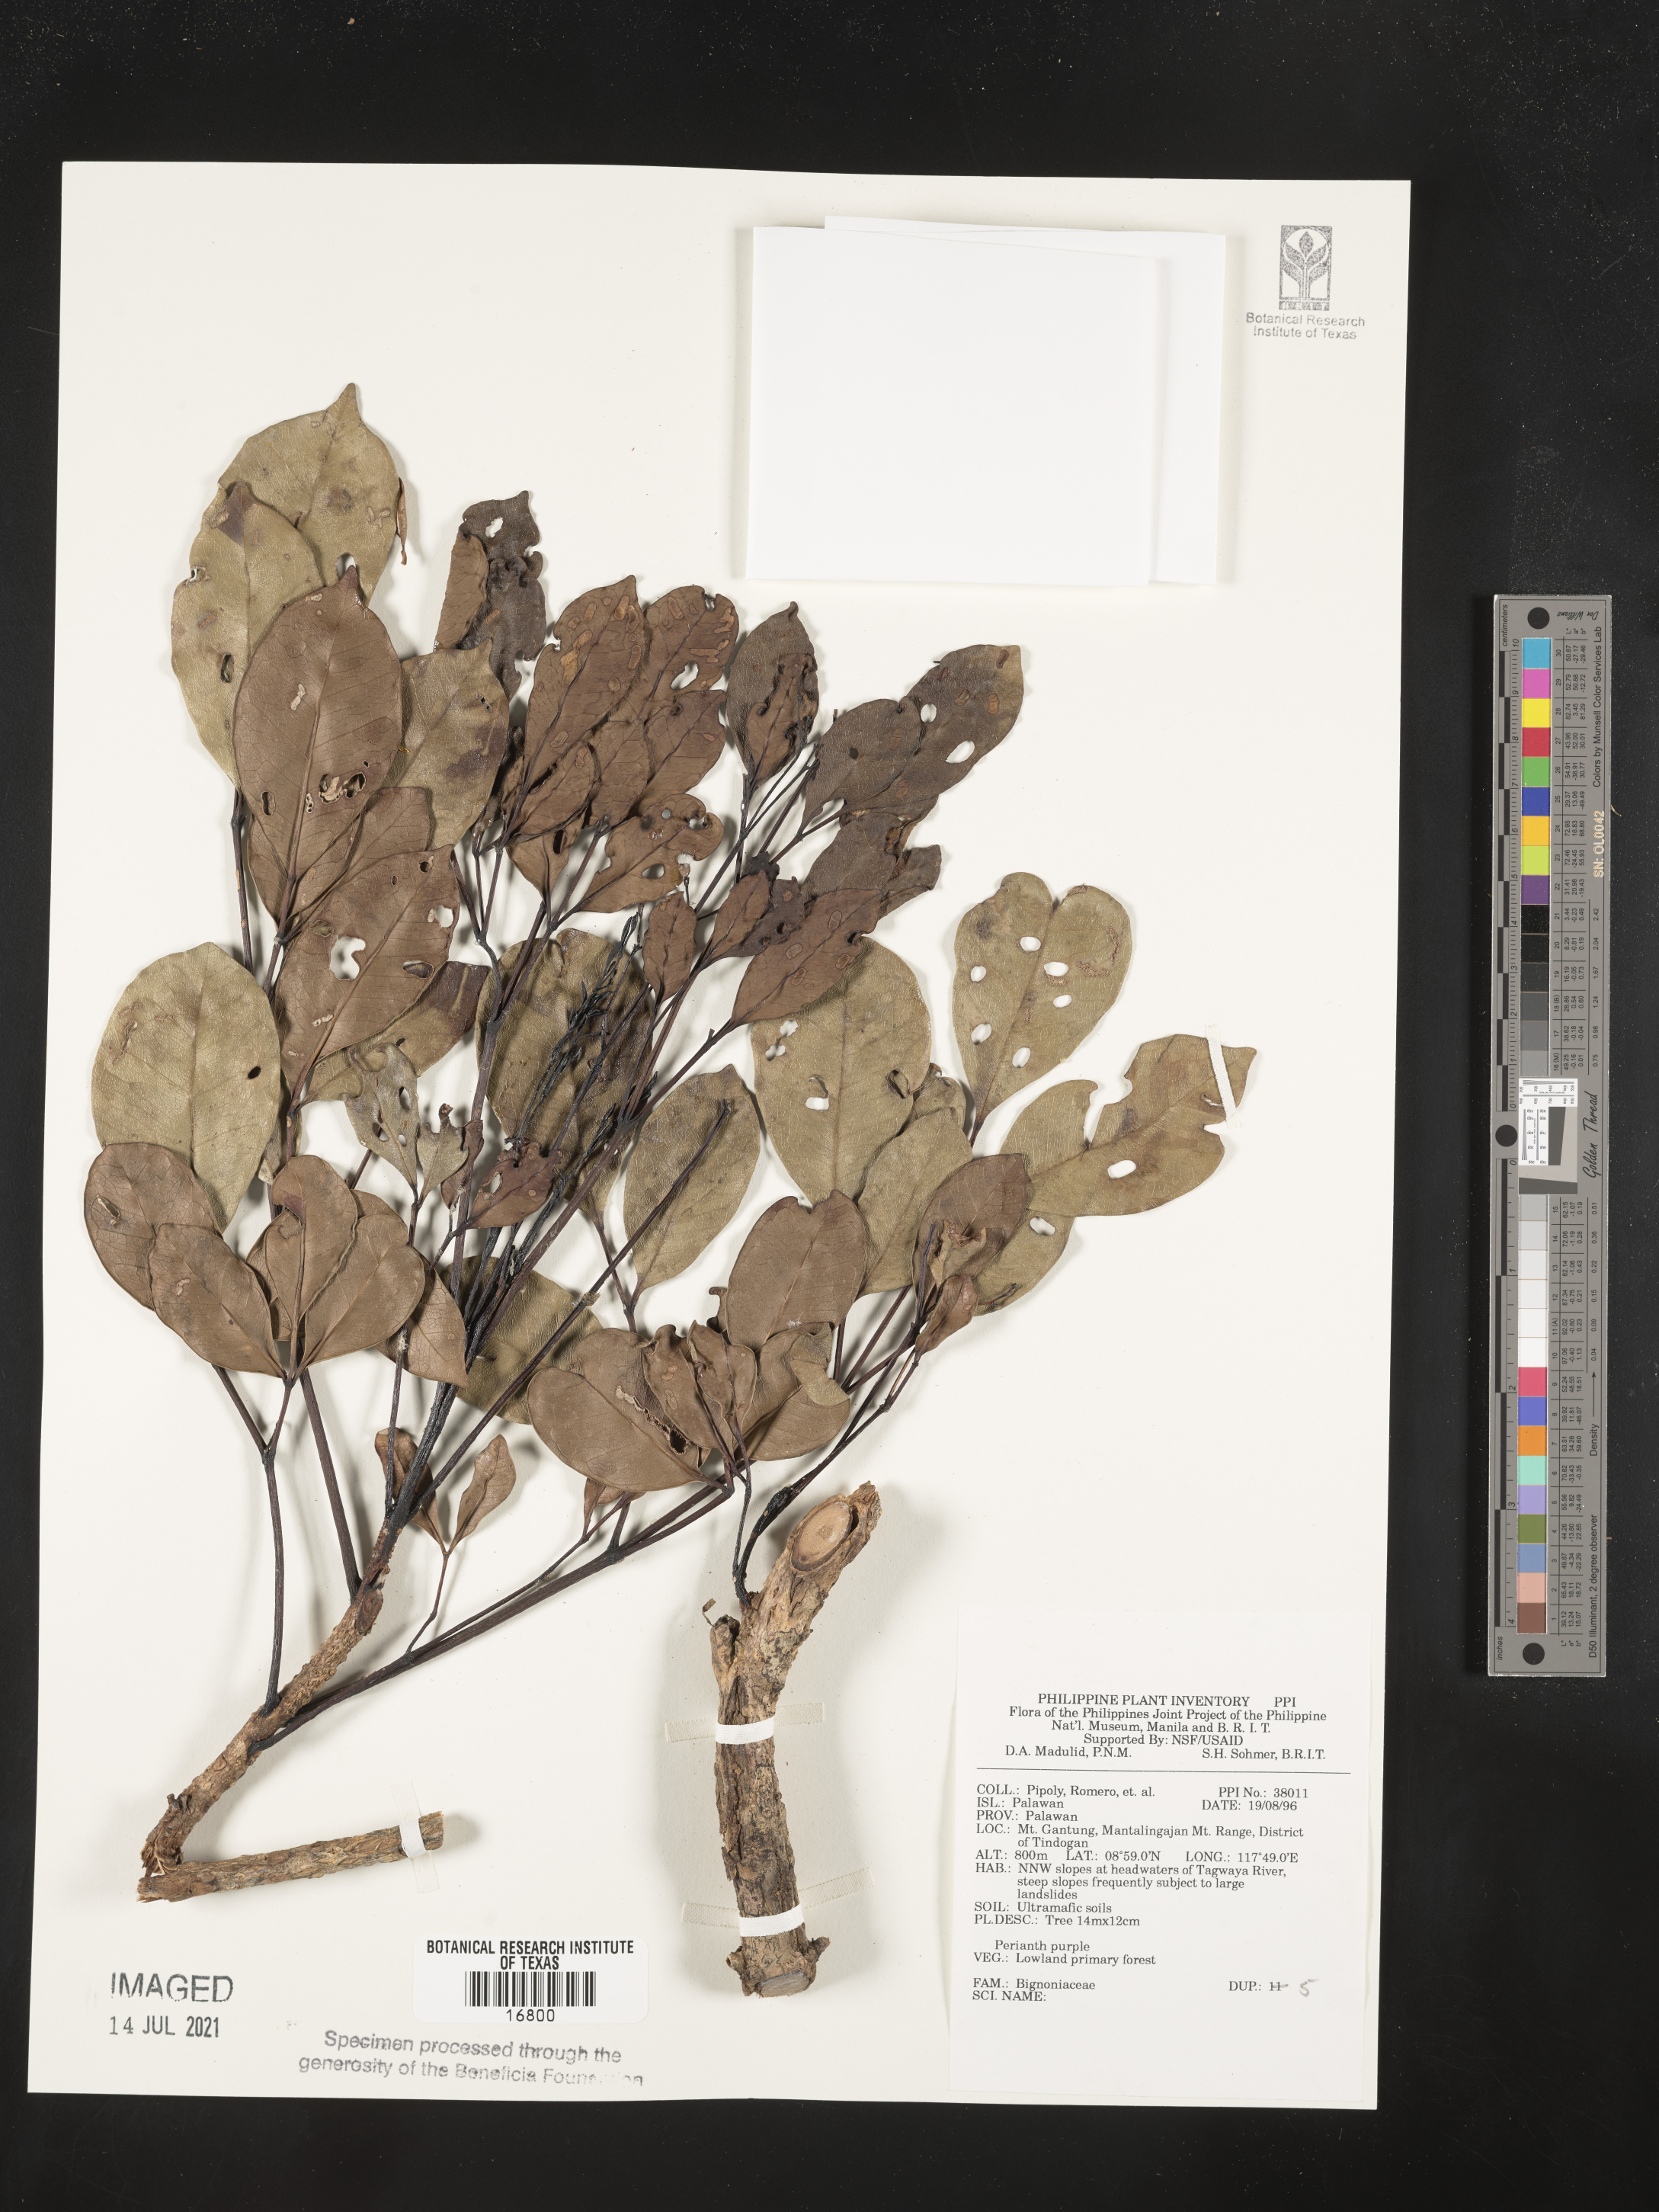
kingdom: Plantae
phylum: Tracheophyta
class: Magnoliopsida
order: Lamiales
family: Bignoniaceae
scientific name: Bignoniaceae
